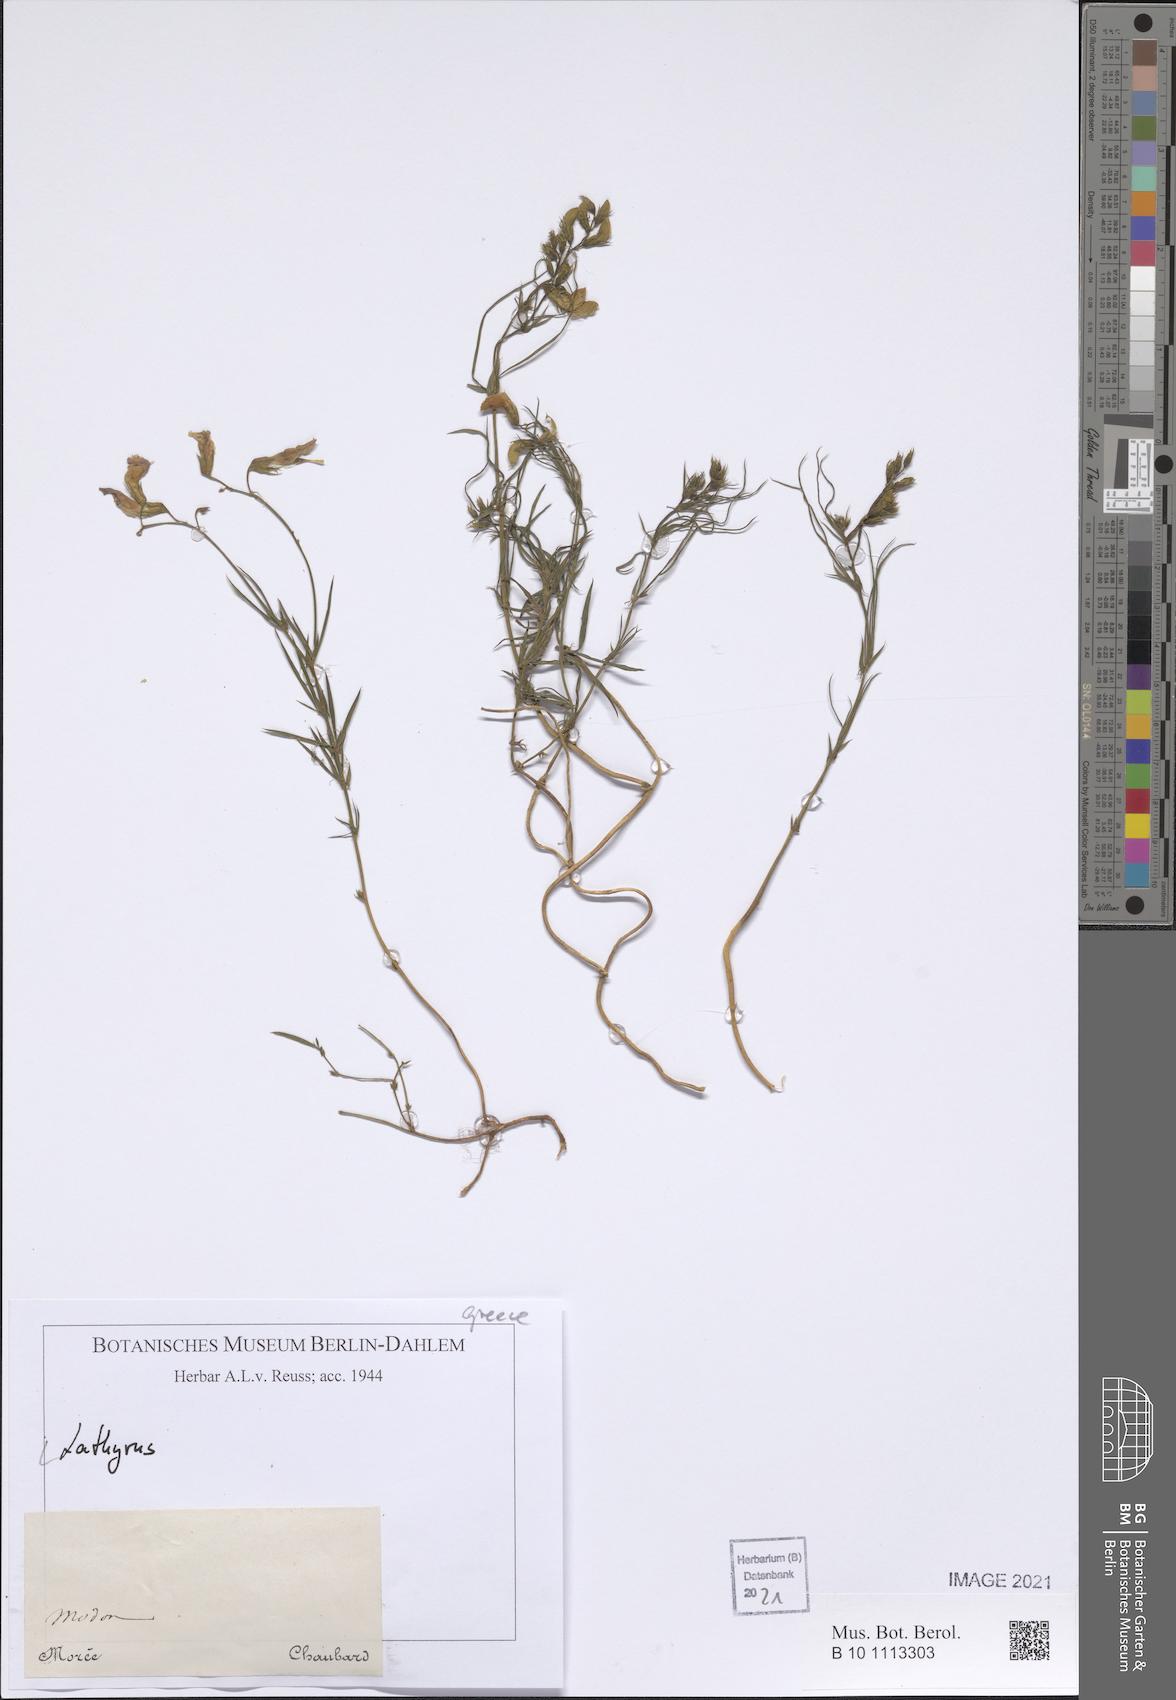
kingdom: Plantae
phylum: Tracheophyta
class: Magnoliopsida
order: Fabales
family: Fabaceae
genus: Lathyrus
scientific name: Lathyrus
